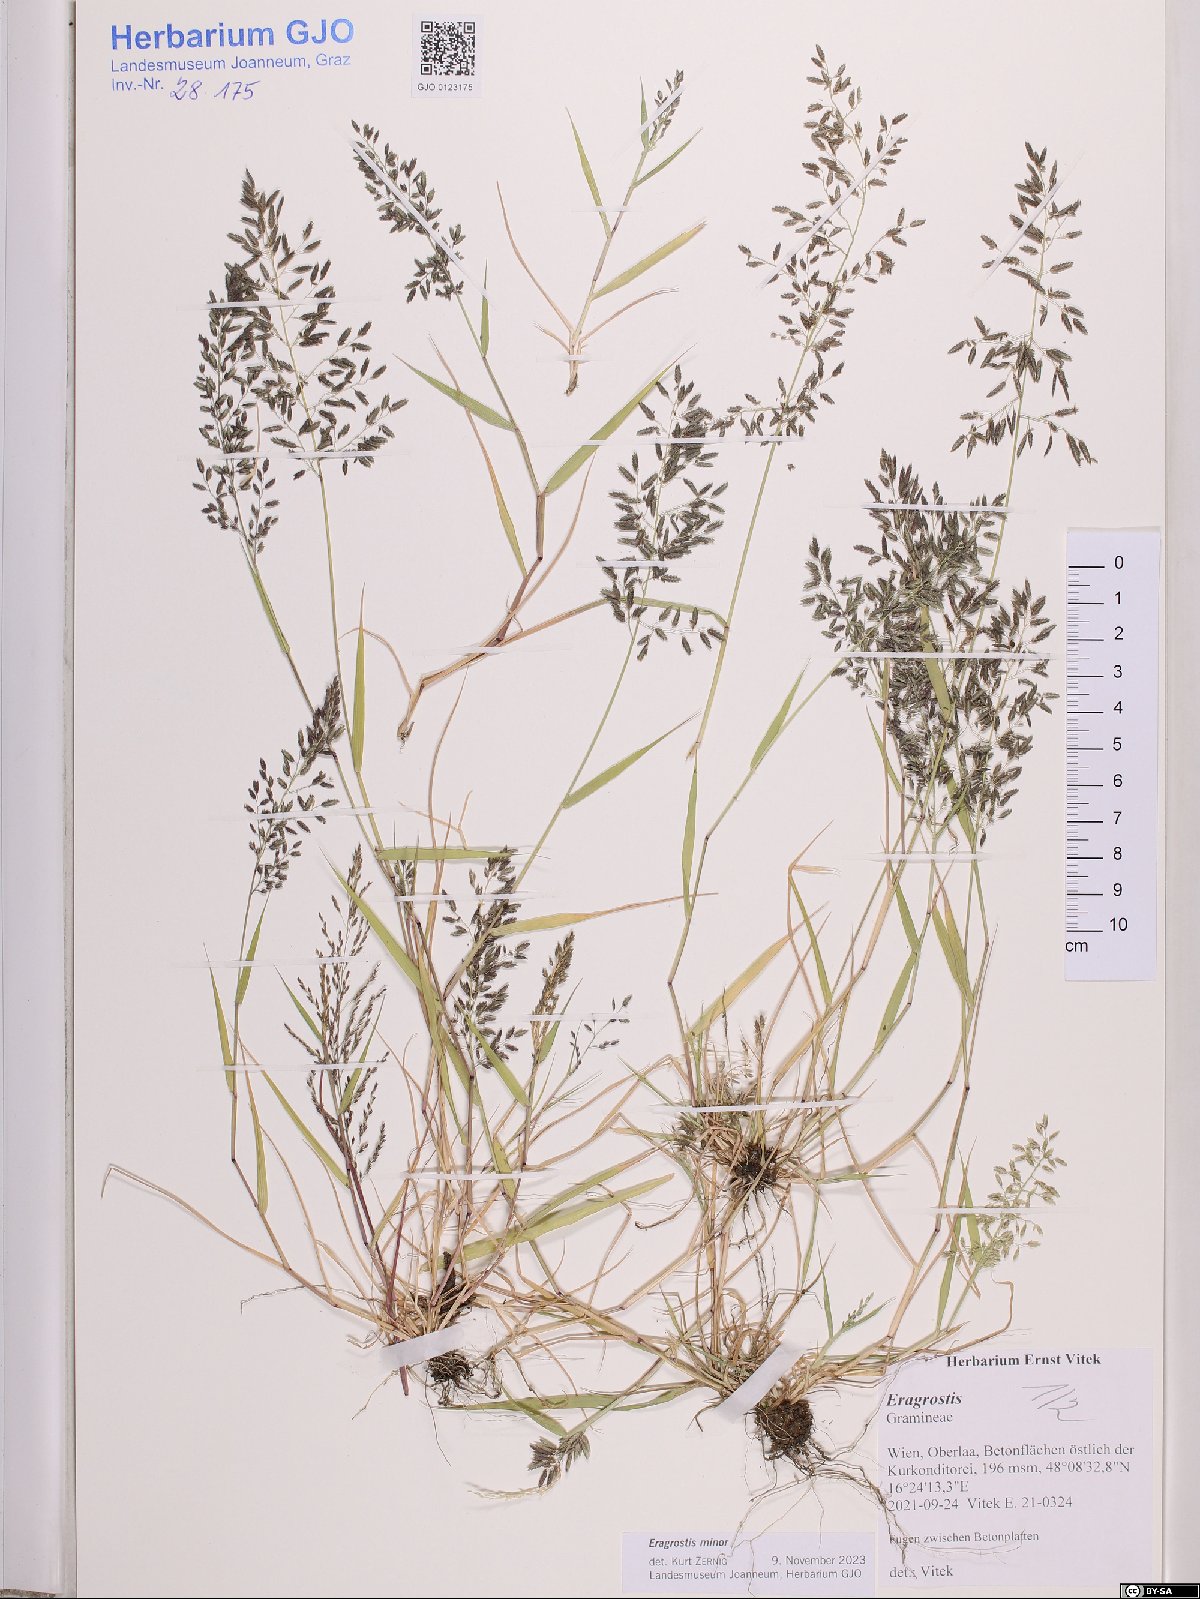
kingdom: Plantae
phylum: Tracheophyta
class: Liliopsida
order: Poales
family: Poaceae
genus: Eragrostis
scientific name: Eragrostis minor
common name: Small love-grass
